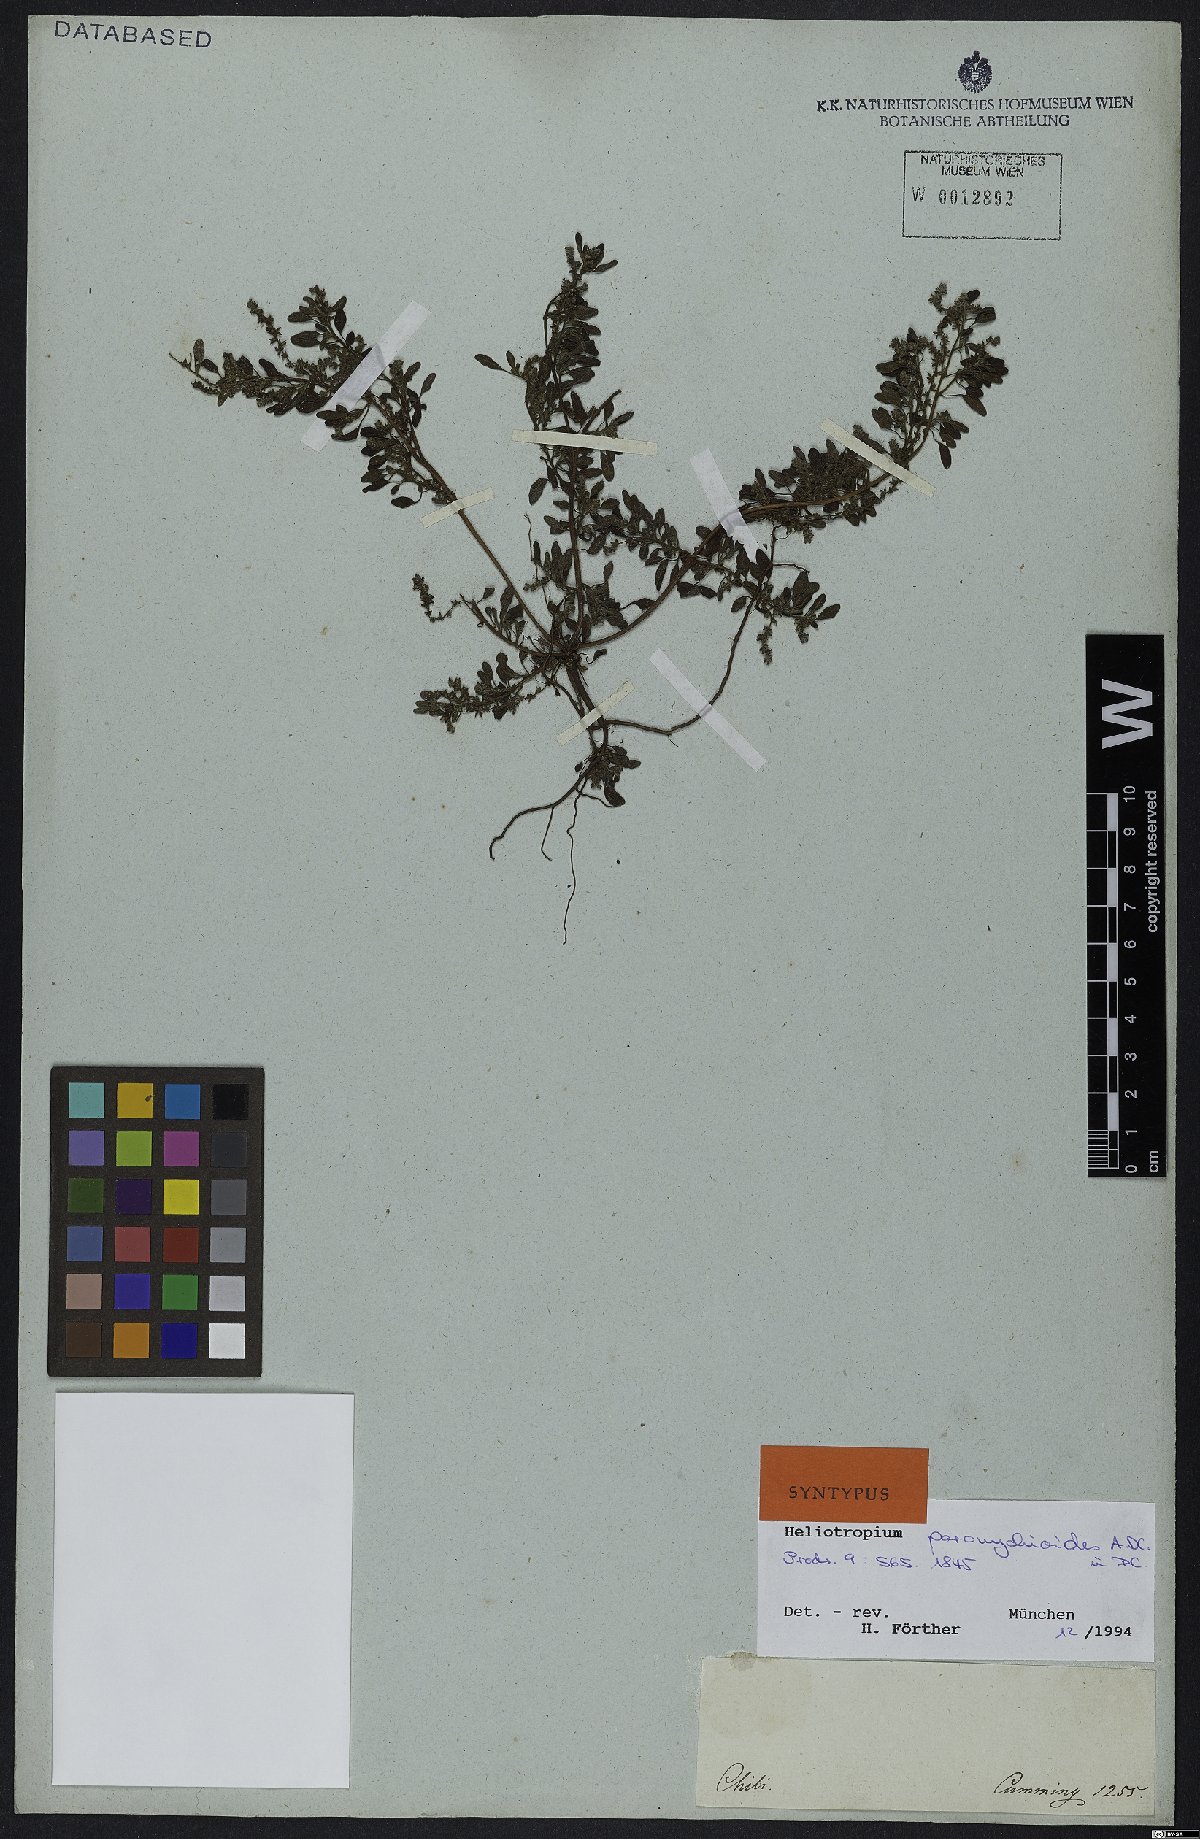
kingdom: Plantae
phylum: Tracheophyta
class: Magnoliopsida
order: Boraginales
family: Heliotropiaceae
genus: Heliotropium
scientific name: Heliotropium paronychioides
